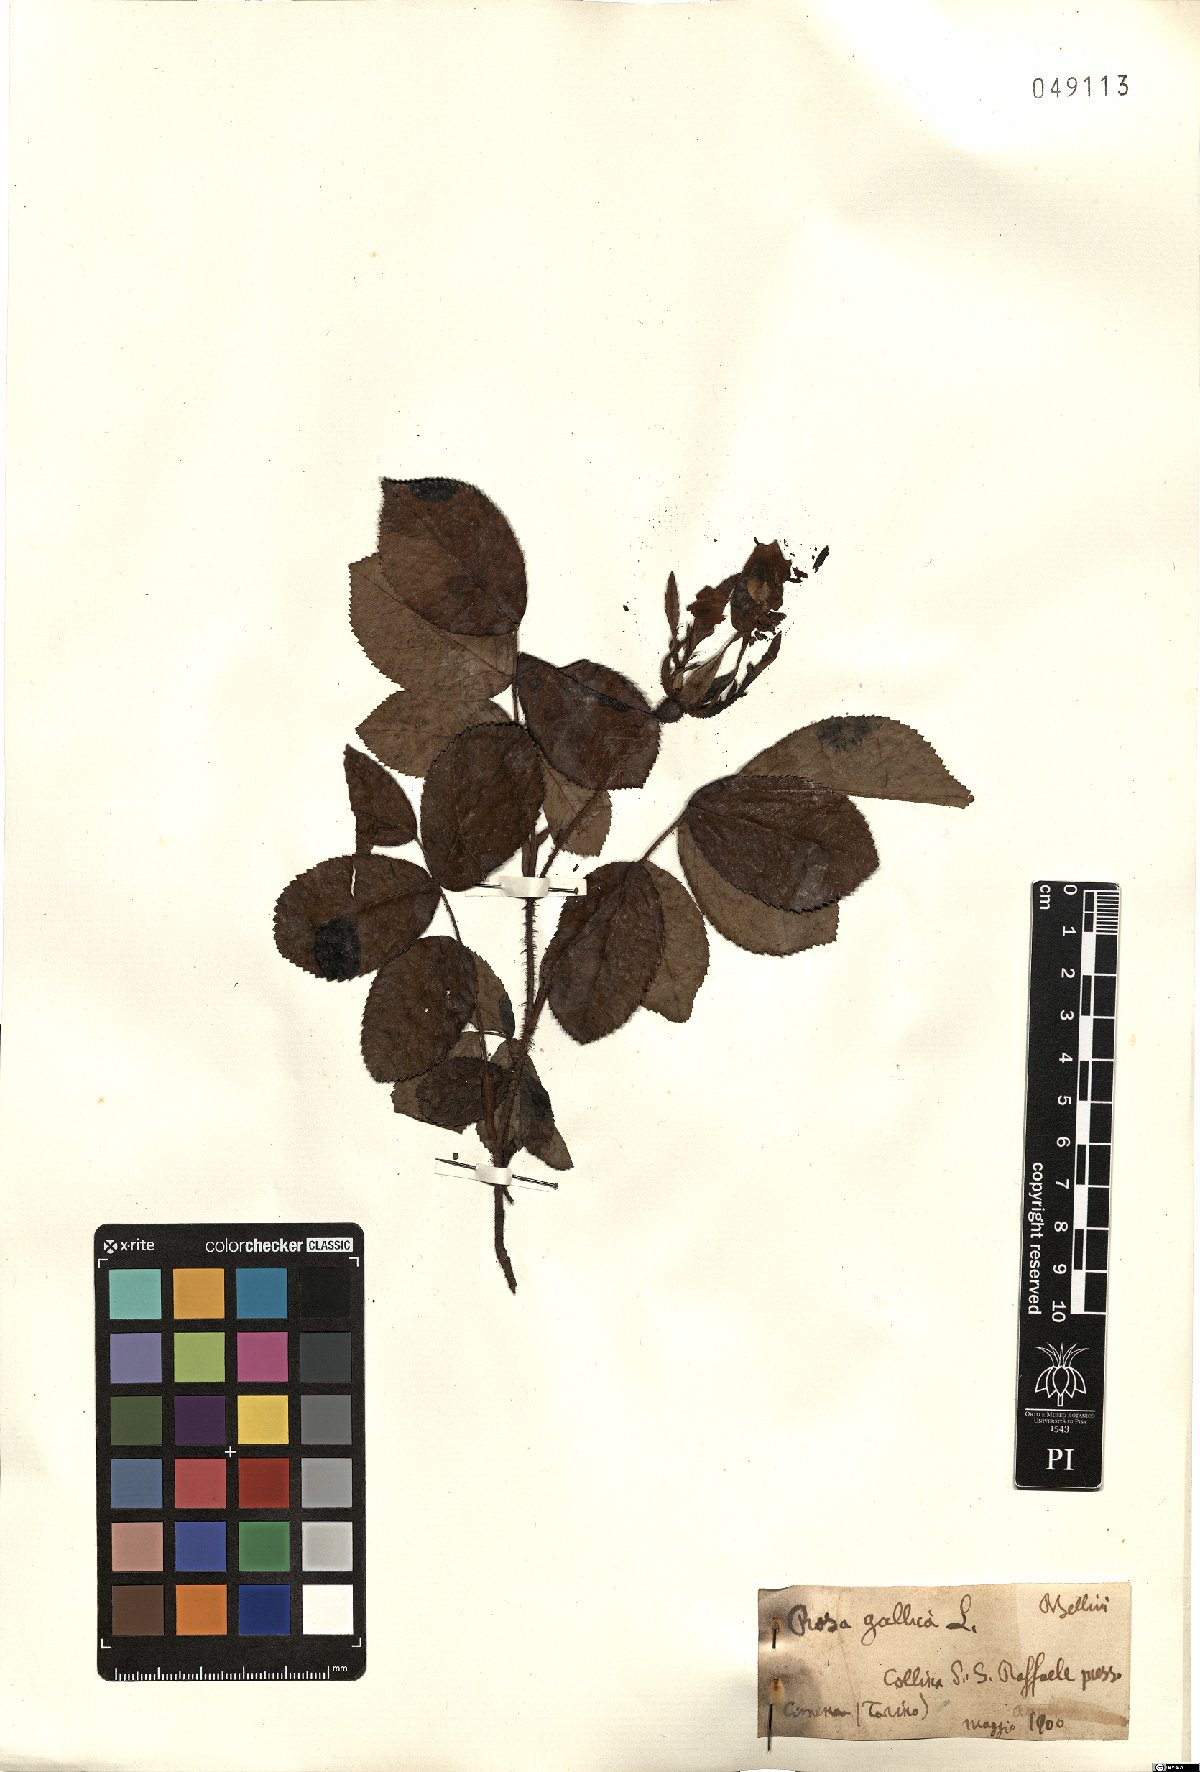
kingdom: Plantae
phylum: Tracheophyta
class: Magnoliopsida
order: Rosales
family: Rosaceae
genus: Rosa
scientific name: Rosa gallica
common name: French rose
